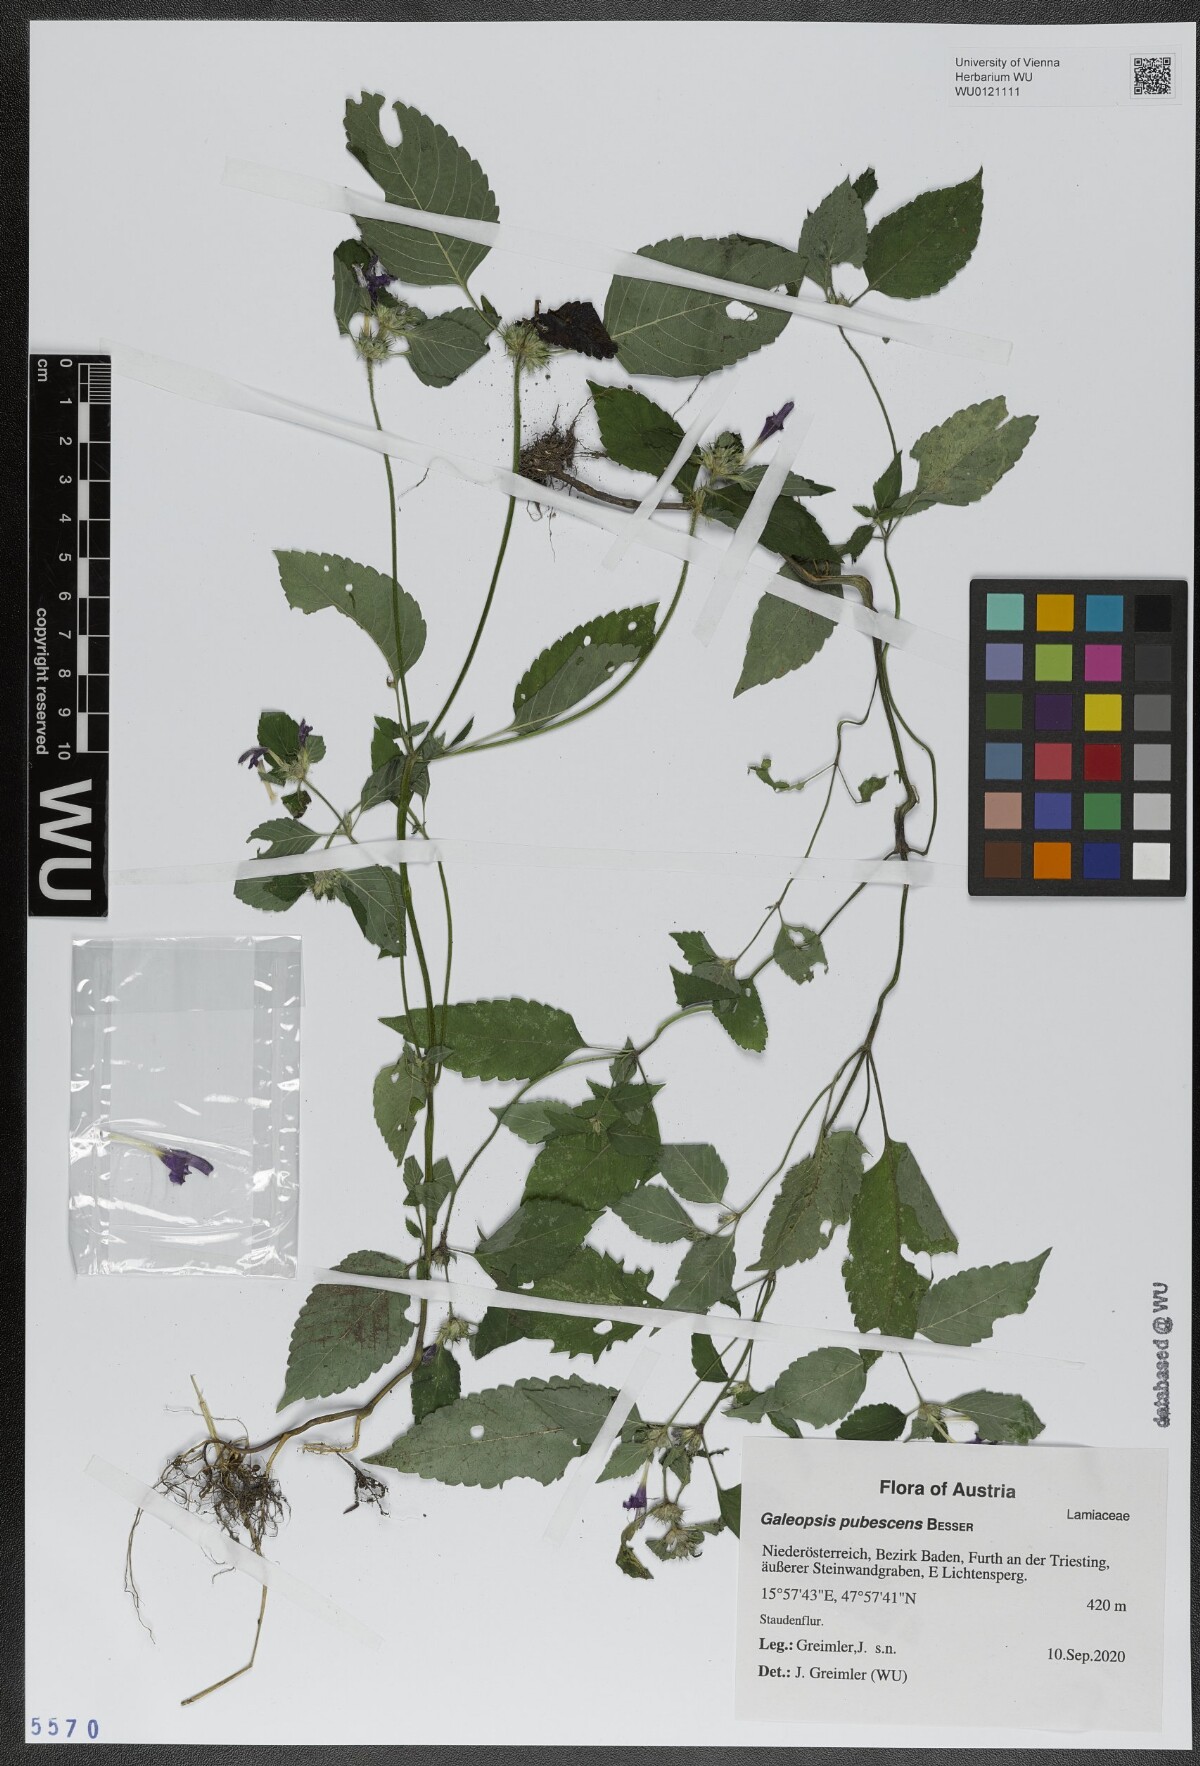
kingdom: Plantae
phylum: Tracheophyta
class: Magnoliopsida
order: Lamiales
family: Lamiaceae
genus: Galeopsis
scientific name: Galeopsis pubescens
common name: Downy hemp-nettle
